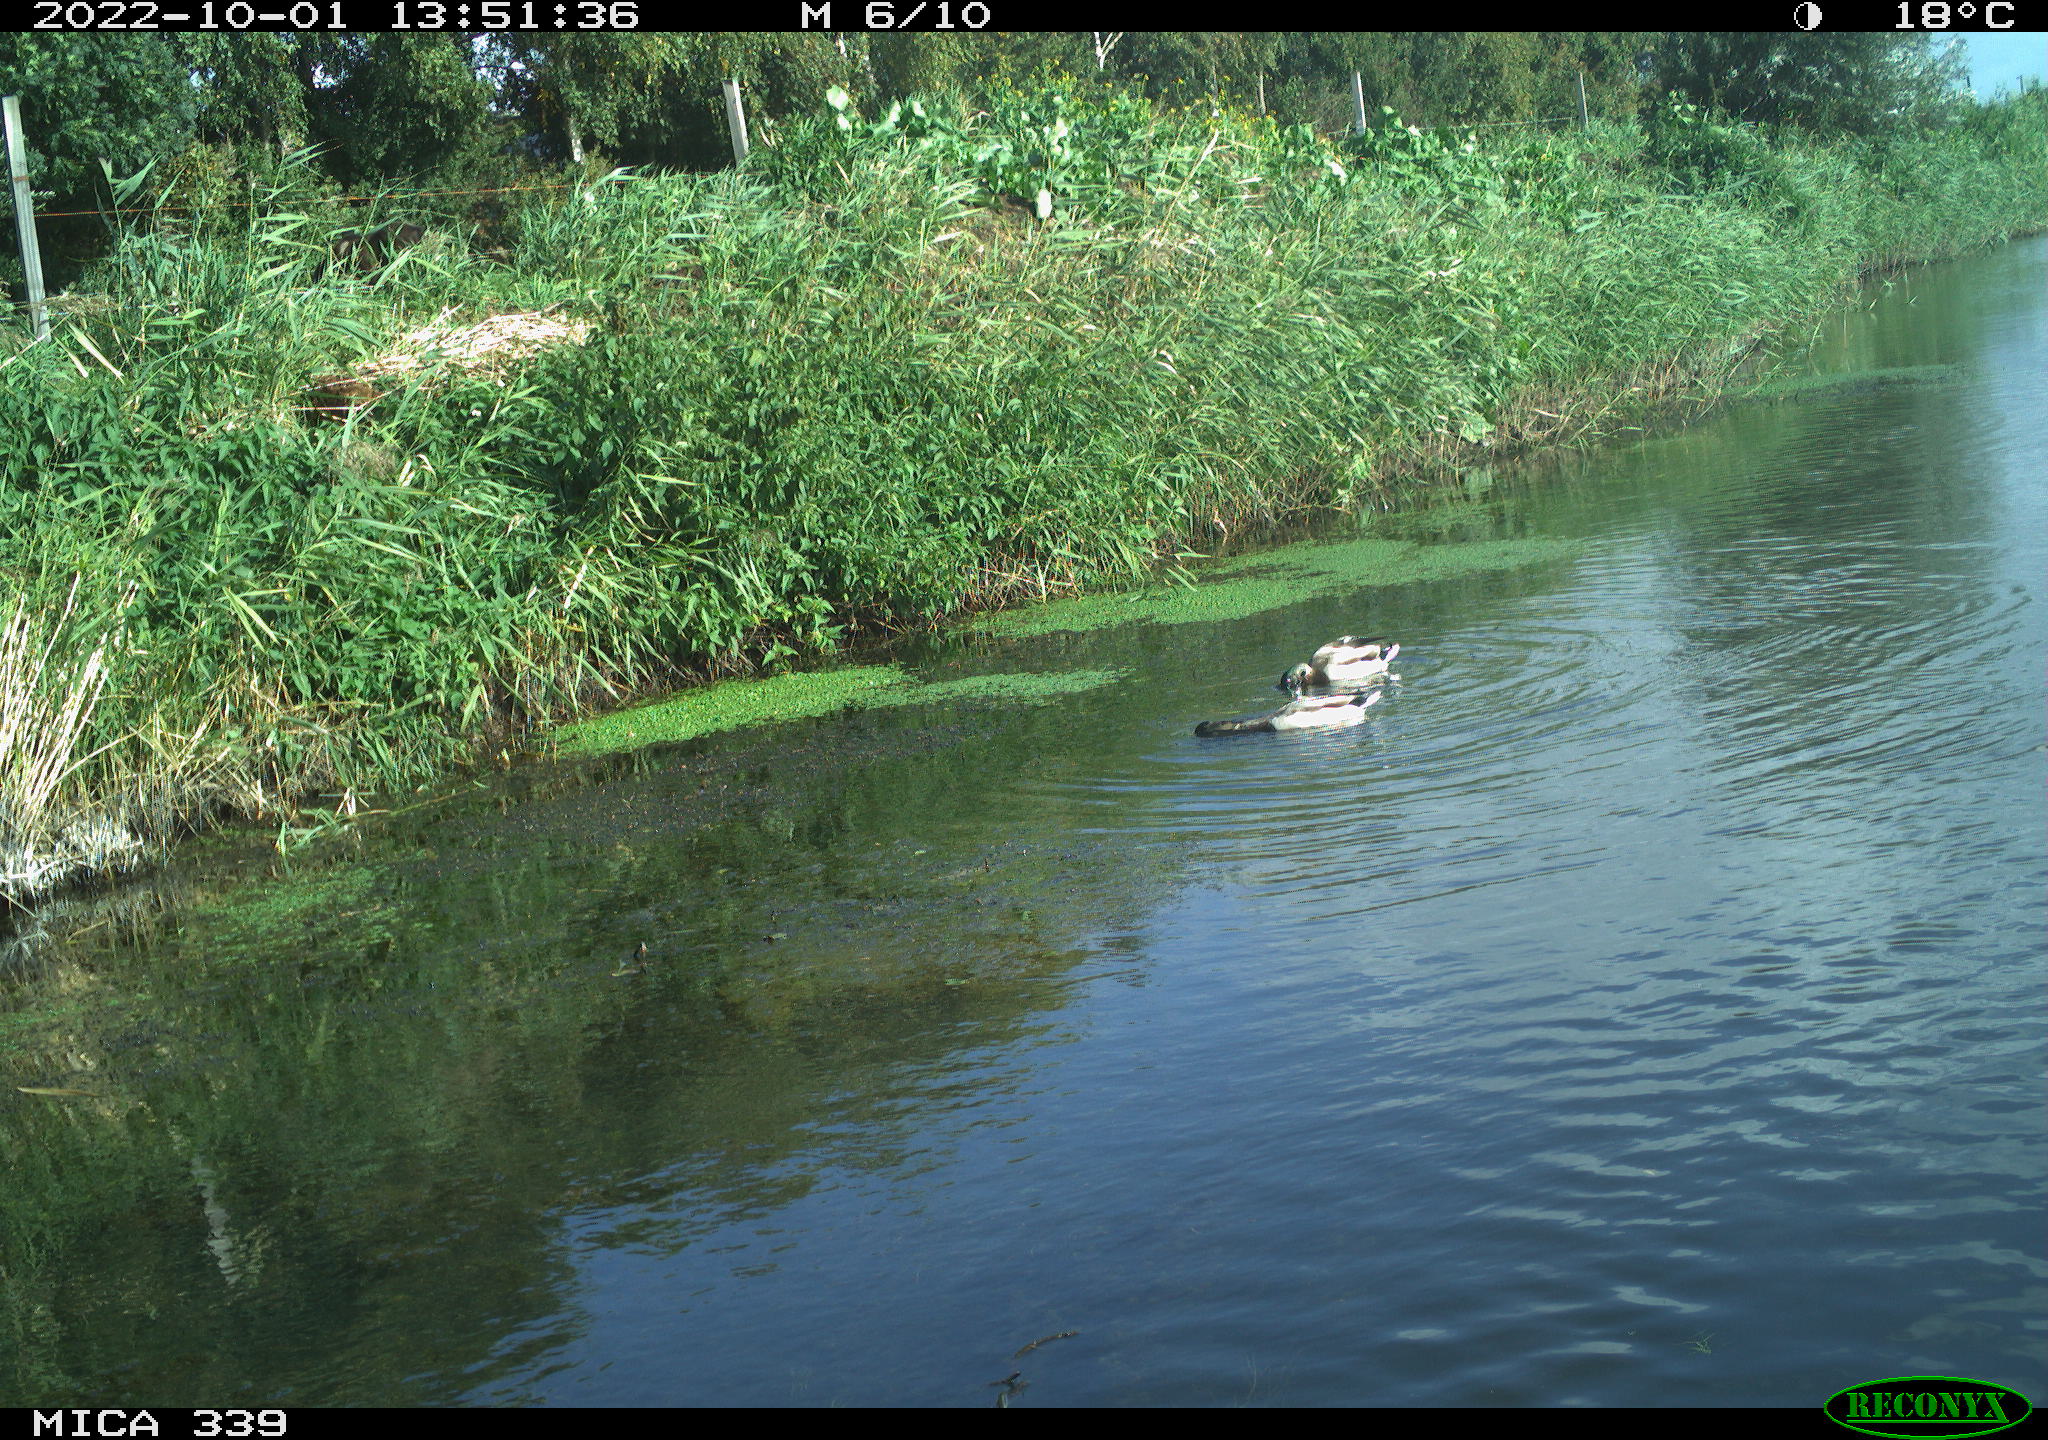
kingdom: Animalia
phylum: Chordata
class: Aves
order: Anseriformes
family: Anatidae
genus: Anas
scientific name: Anas platyrhynchos
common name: Mallard
